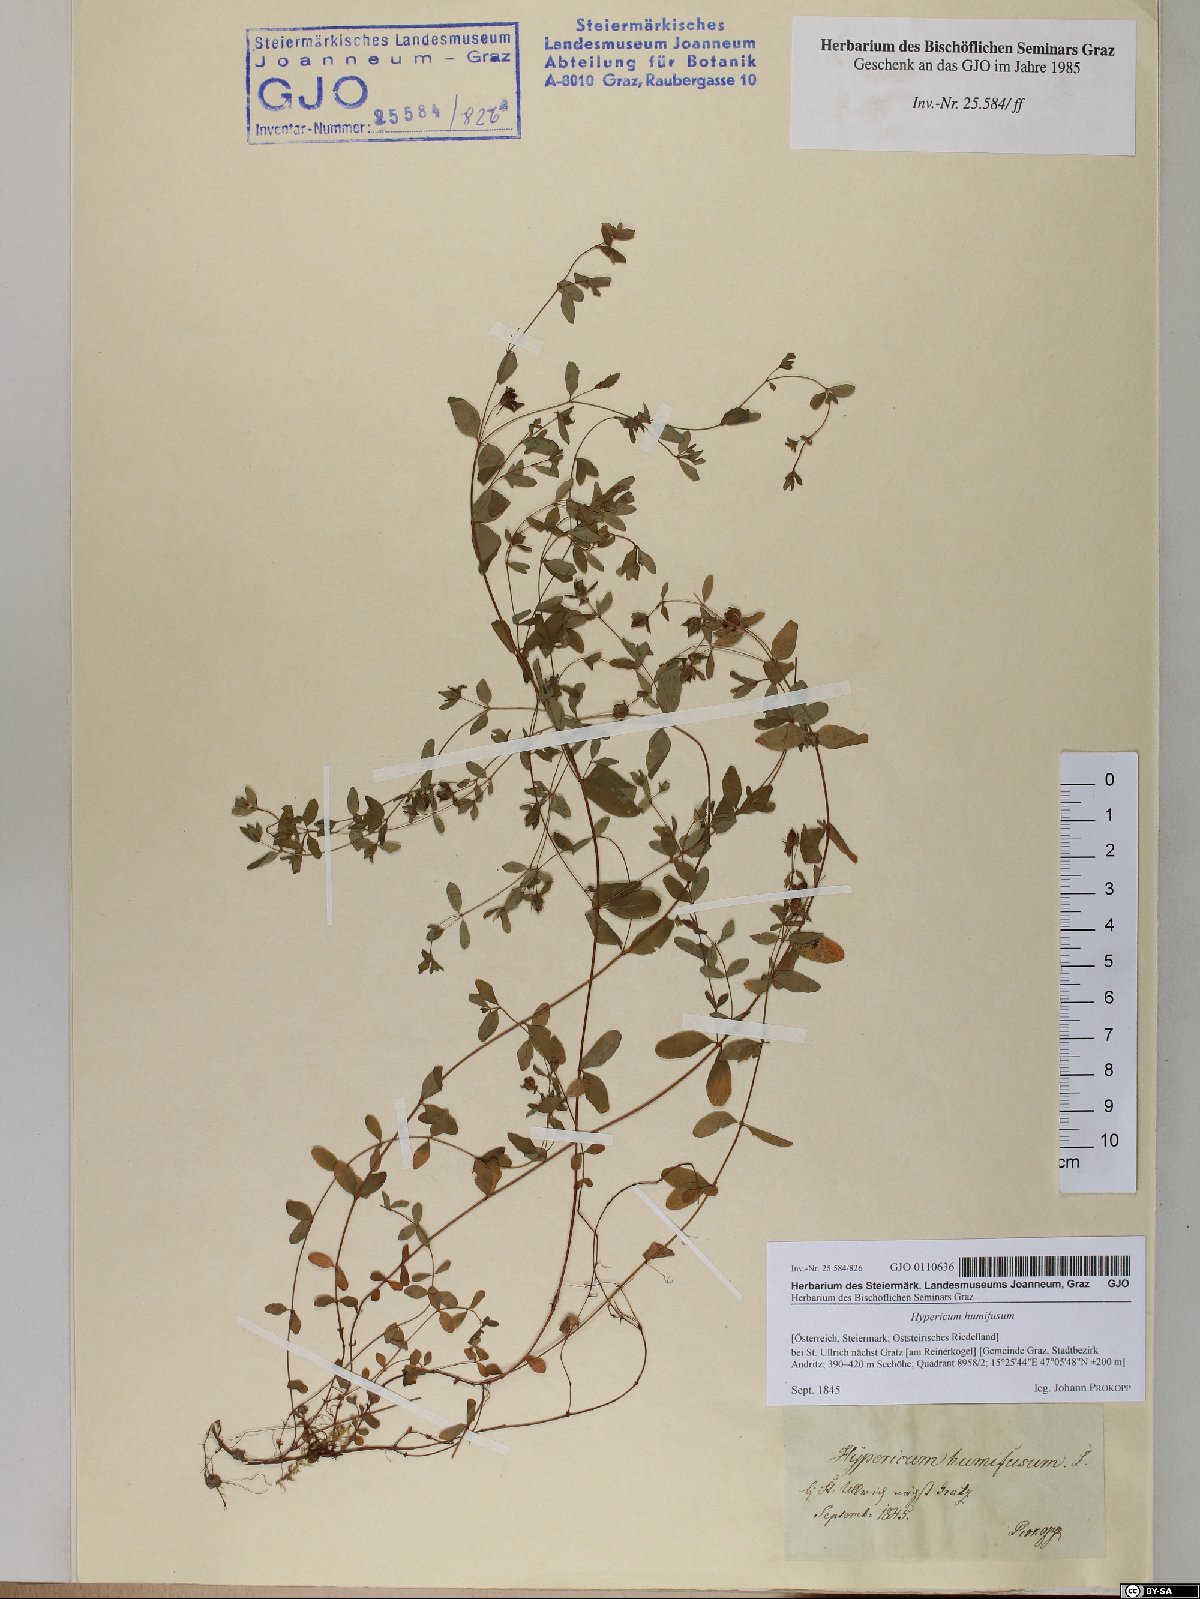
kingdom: Plantae
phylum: Tracheophyta
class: Magnoliopsida
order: Malpighiales
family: Hypericaceae
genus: Hypericum
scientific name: Hypericum humifusum
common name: Trailing st. john's-wort
